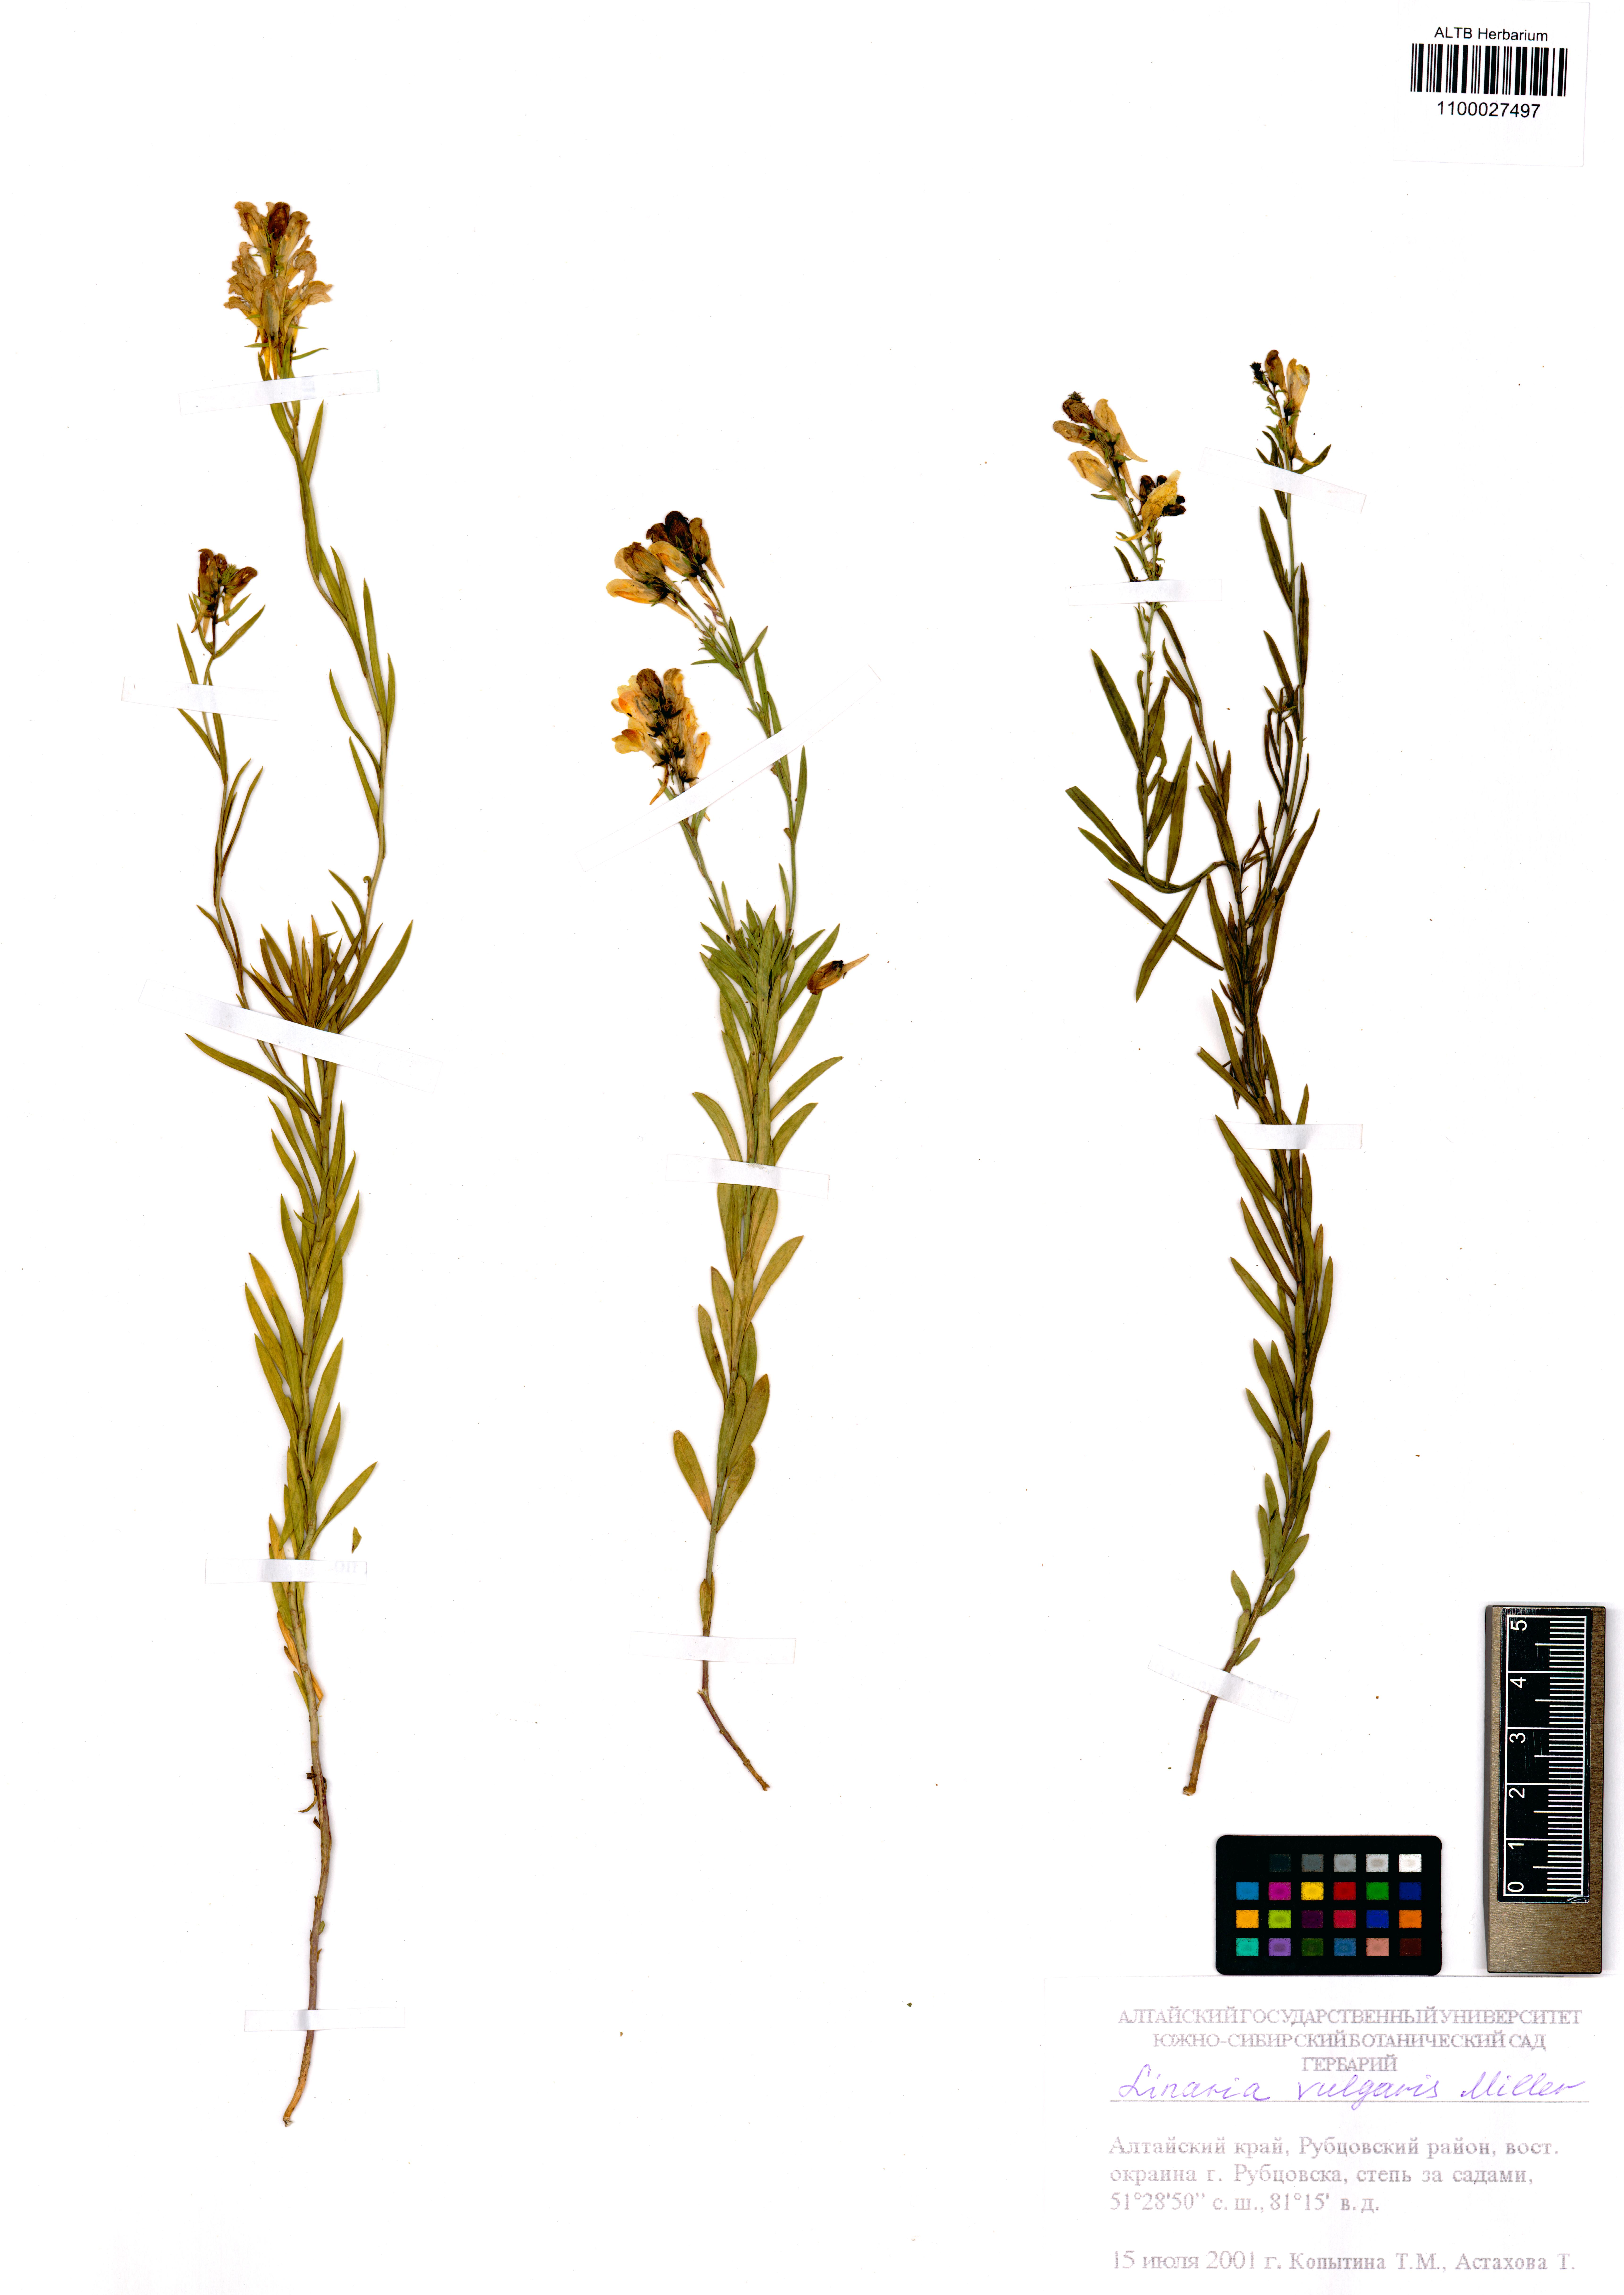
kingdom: Plantae
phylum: Tracheophyta
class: Magnoliopsida
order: Lamiales
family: Plantaginaceae
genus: Linaria
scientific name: Linaria vulgaris
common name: Butter and eggs
